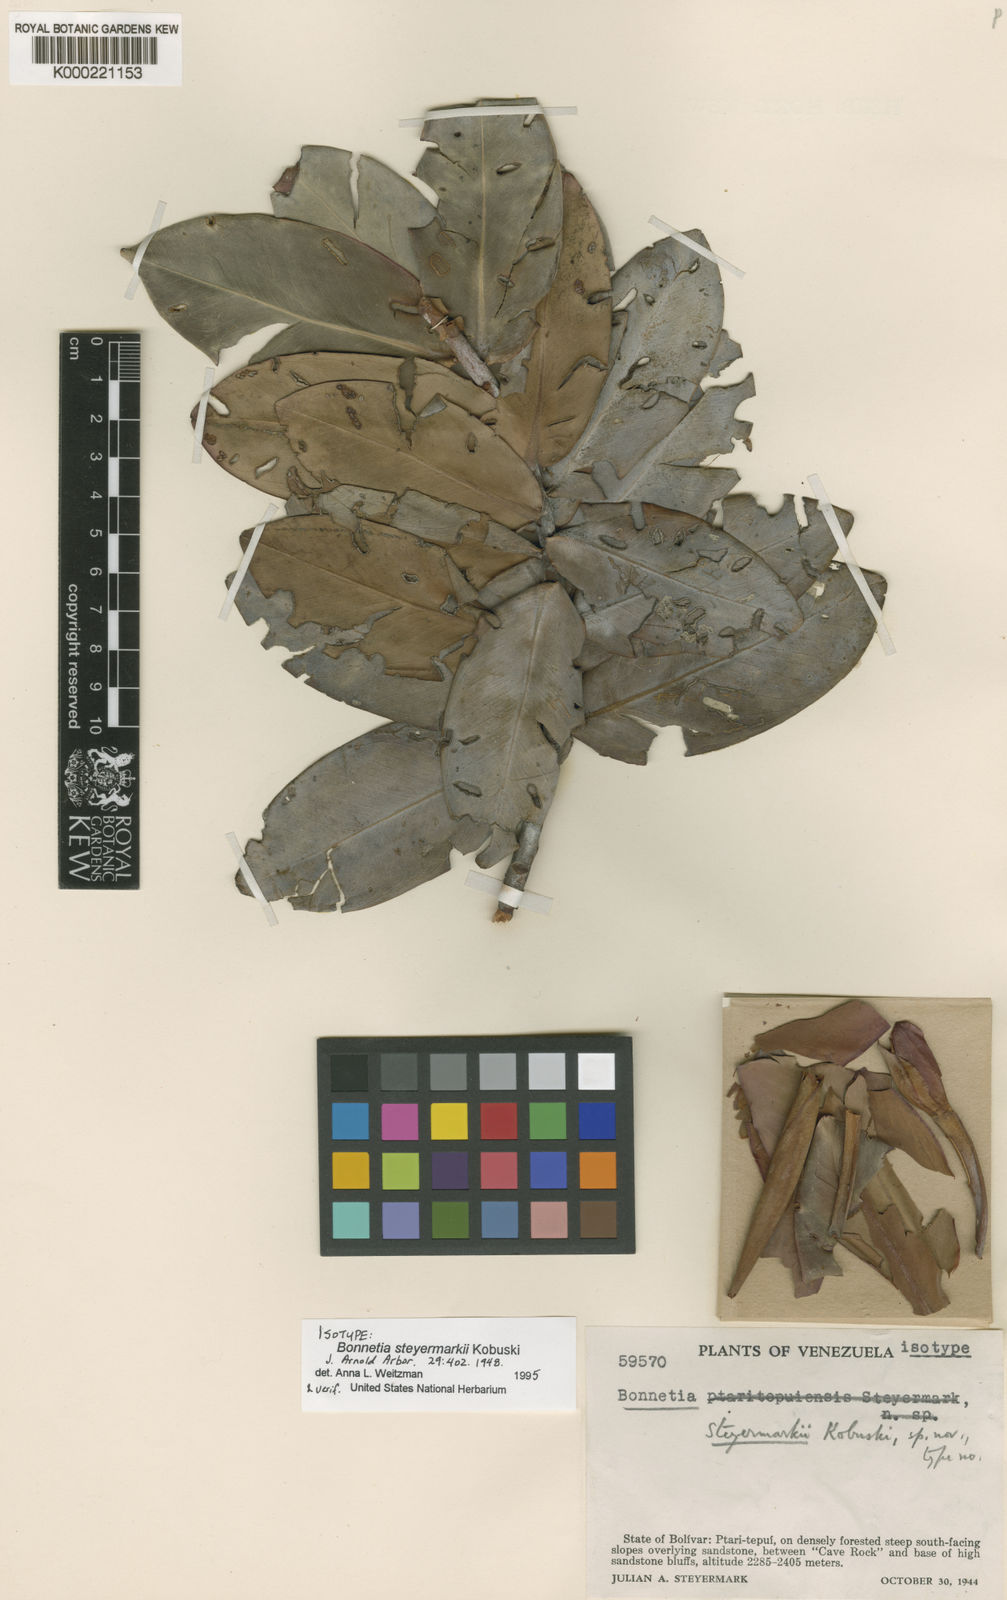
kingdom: Plantae
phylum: Tracheophyta
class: Magnoliopsida
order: Malpighiales
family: Bonnetiaceae
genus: Bonnetia
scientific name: Bonnetia steyermarkii
